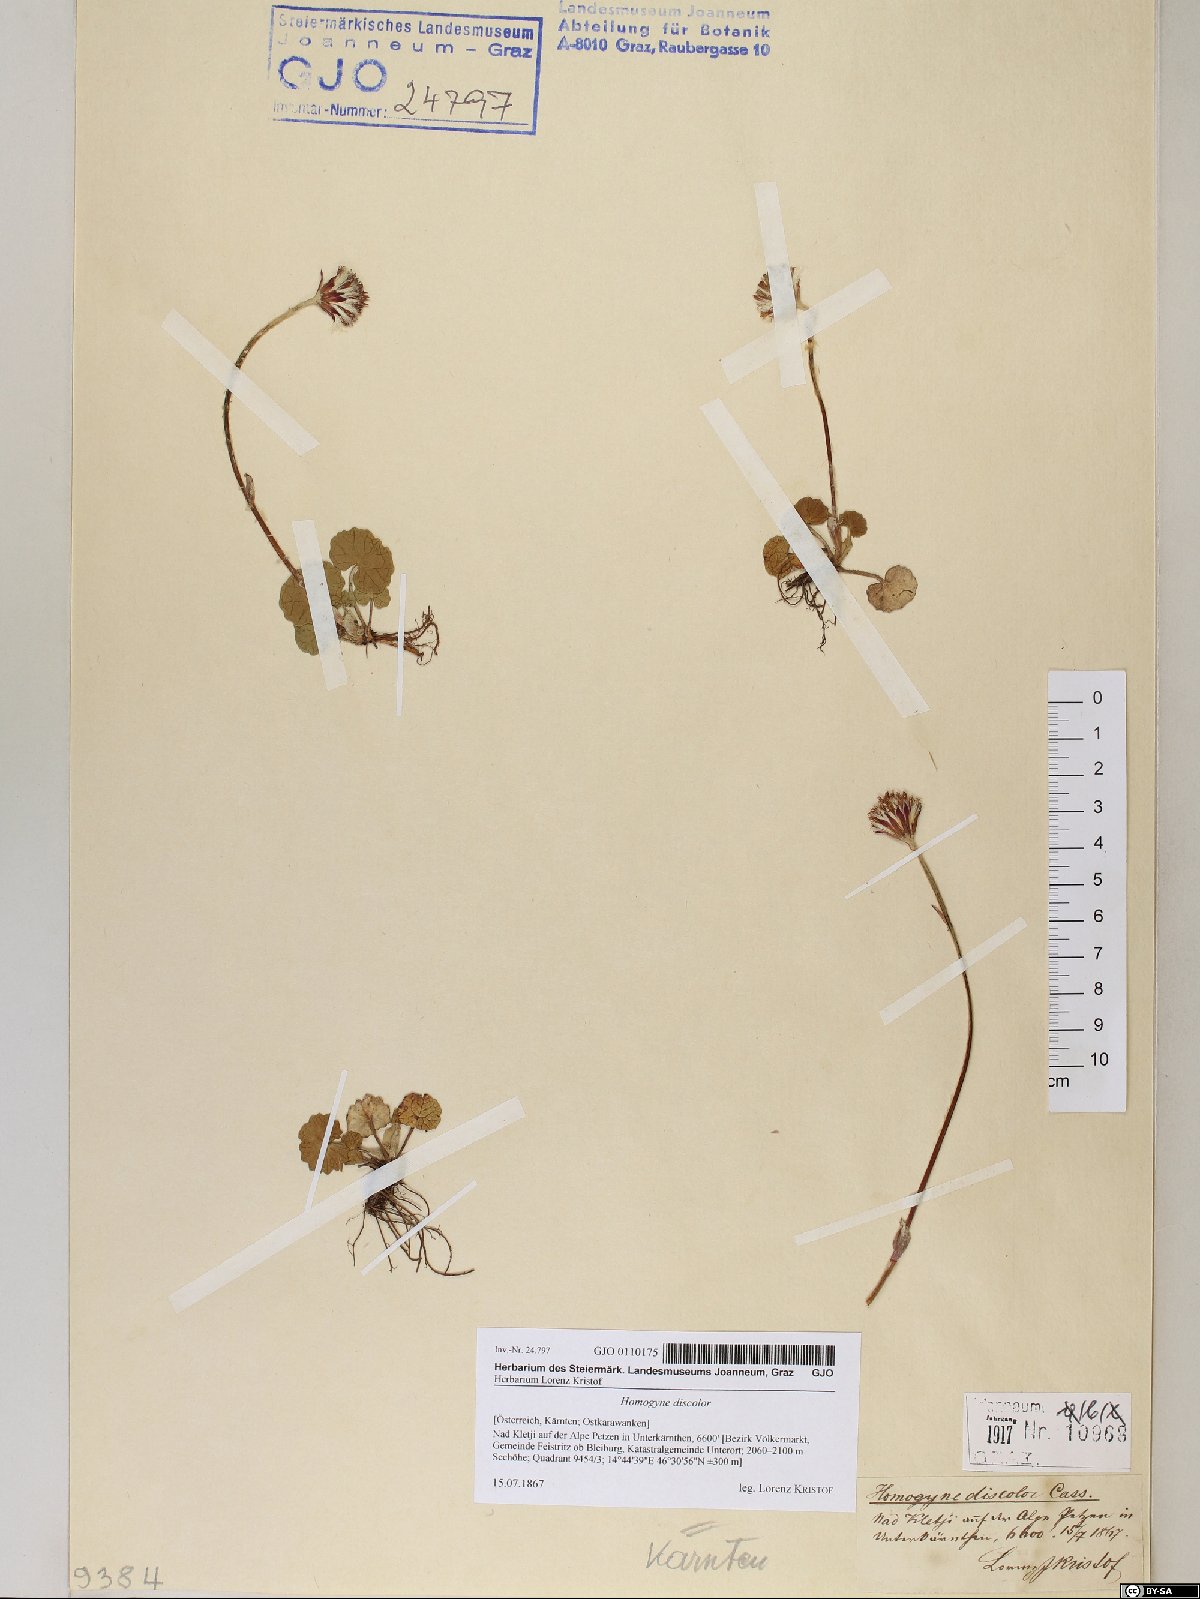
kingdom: Plantae
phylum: Tracheophyta
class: Magnoliopsida
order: Asterales
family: Asteraceae
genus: Homogyne
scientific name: Homogyne discolor
